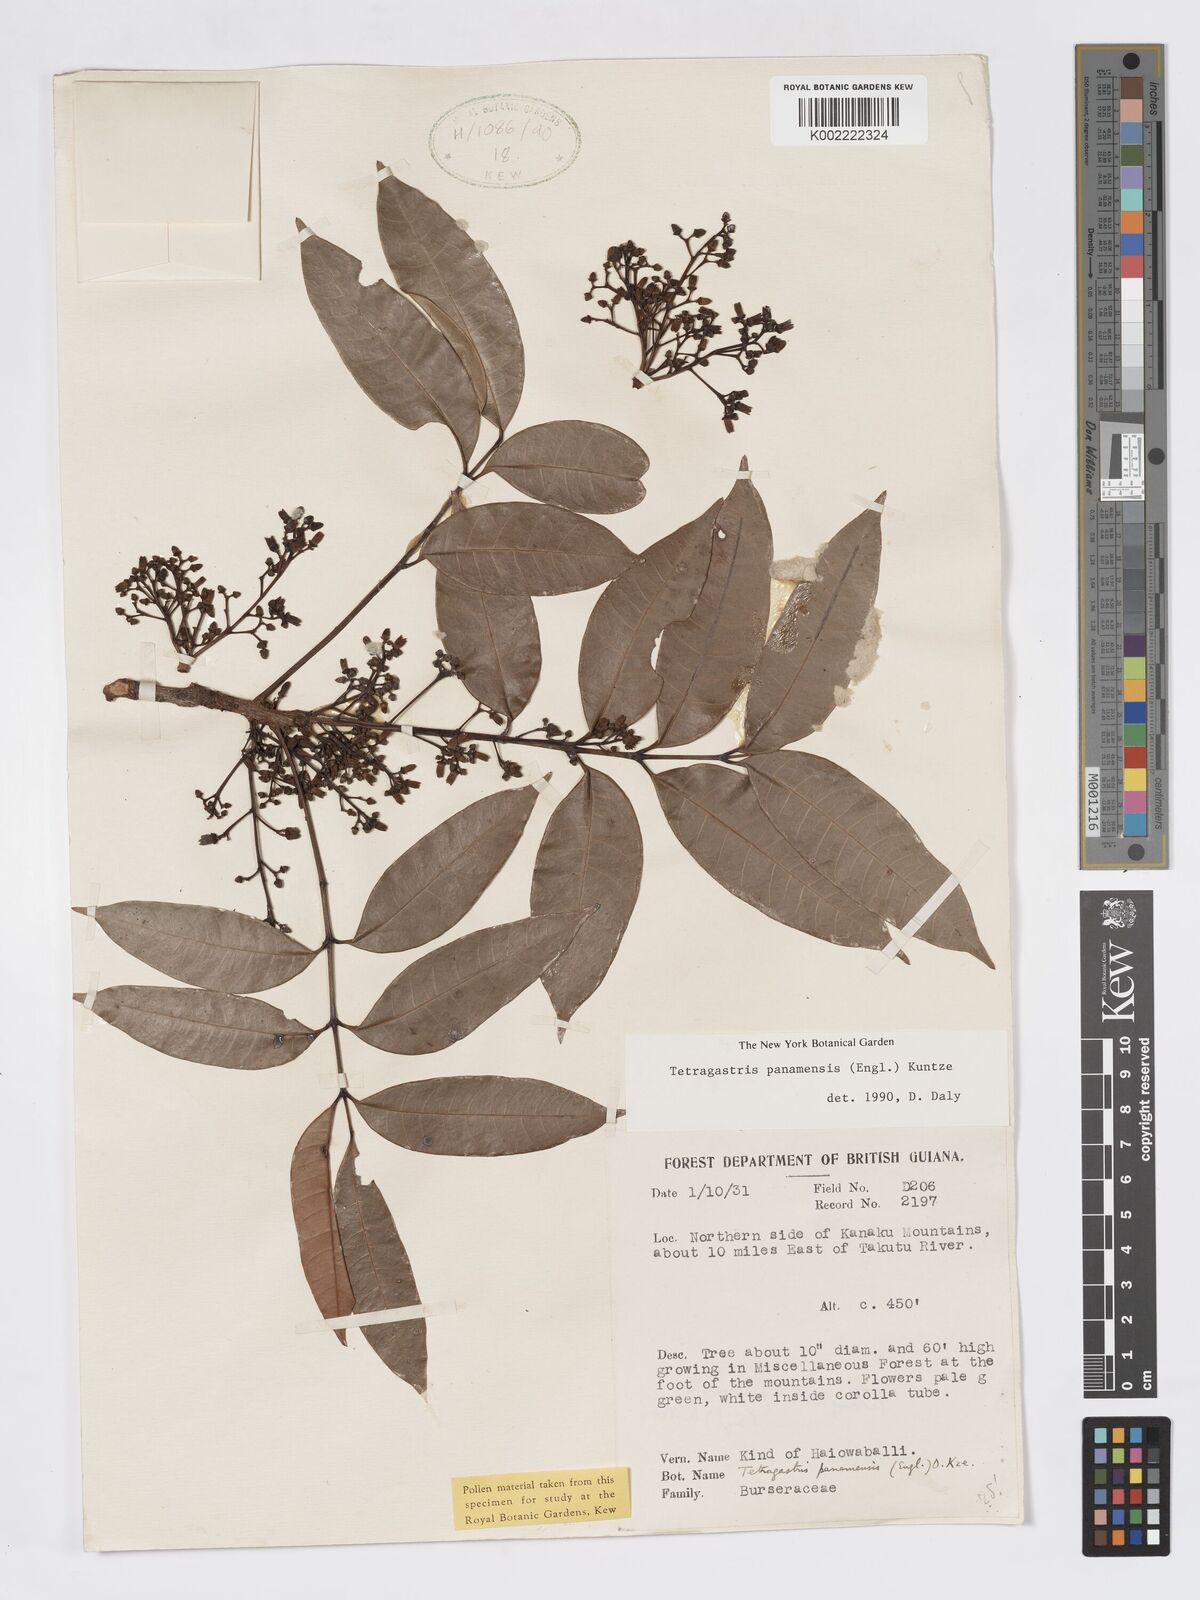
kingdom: Plantae
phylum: Tracheophyta
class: Magnoliopsida
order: Sapindales
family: Burseraceae
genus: Tetragastris
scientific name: Tetragastris panamensis
